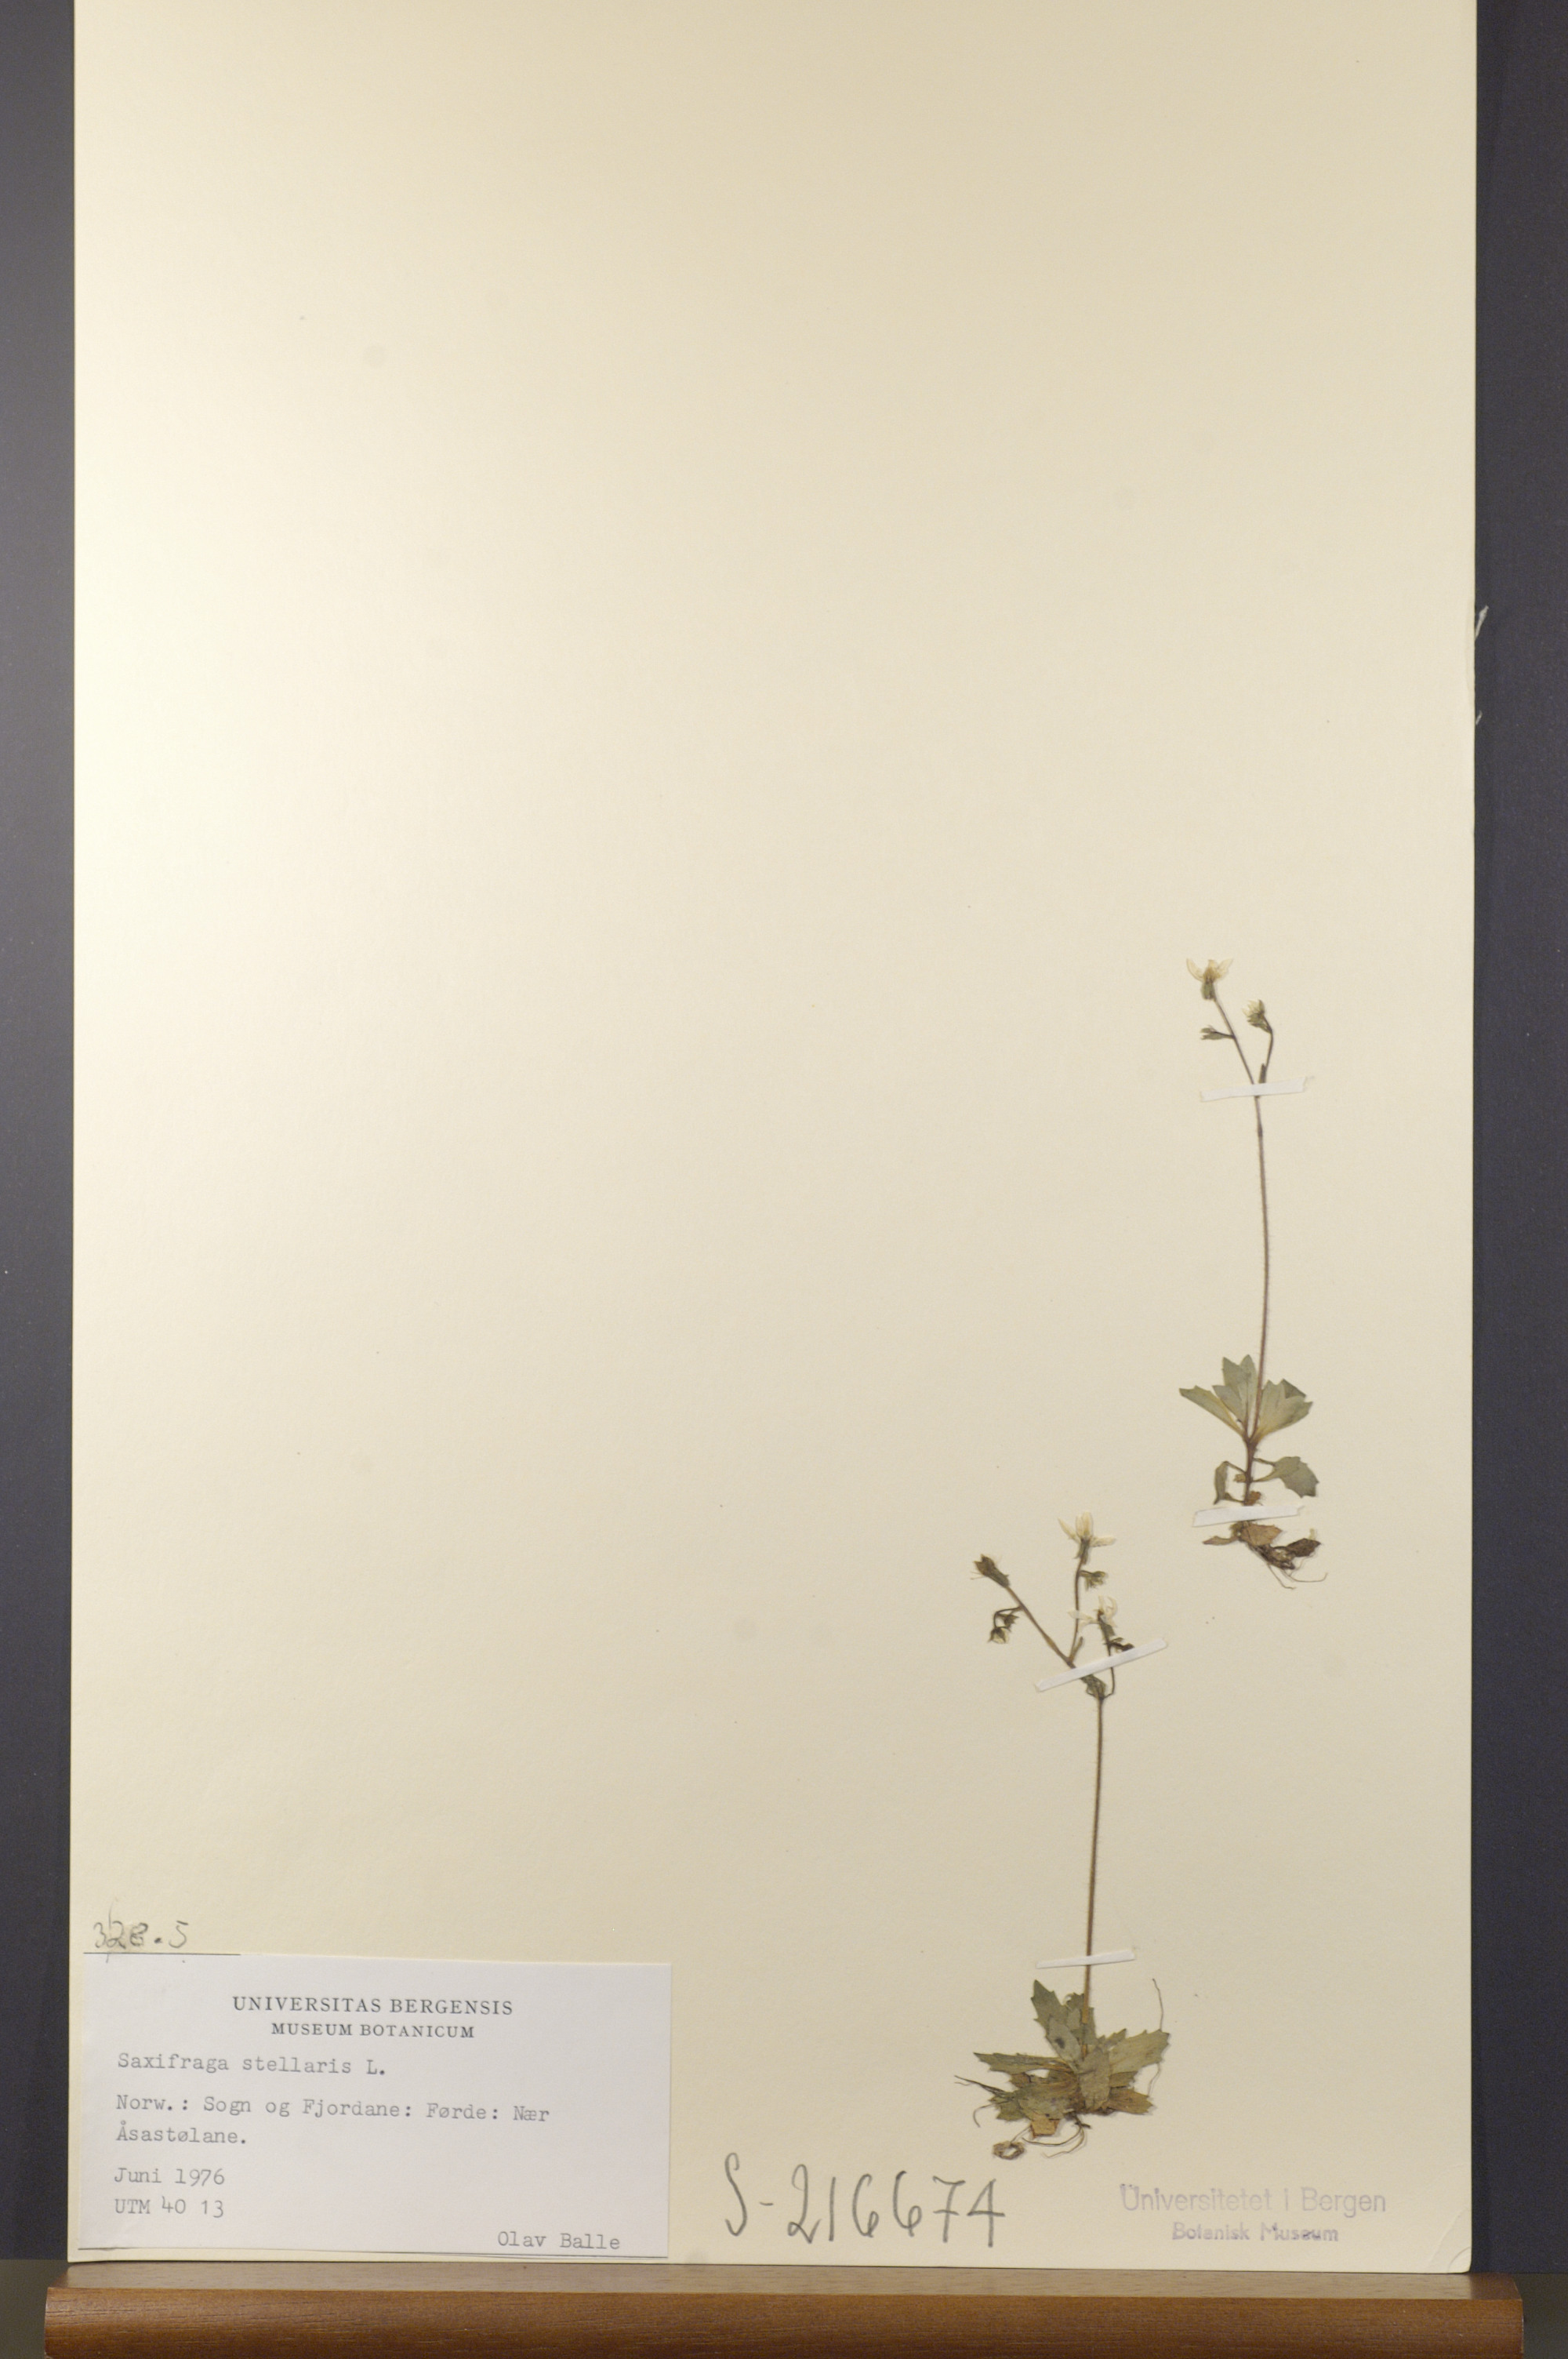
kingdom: Plantae
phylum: Tracheophyta
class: Magnoliopsida
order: Saxifragales
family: Saxifragaceae
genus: Micranthes
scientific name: Micranthes stellaris
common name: Starry saxifrage
